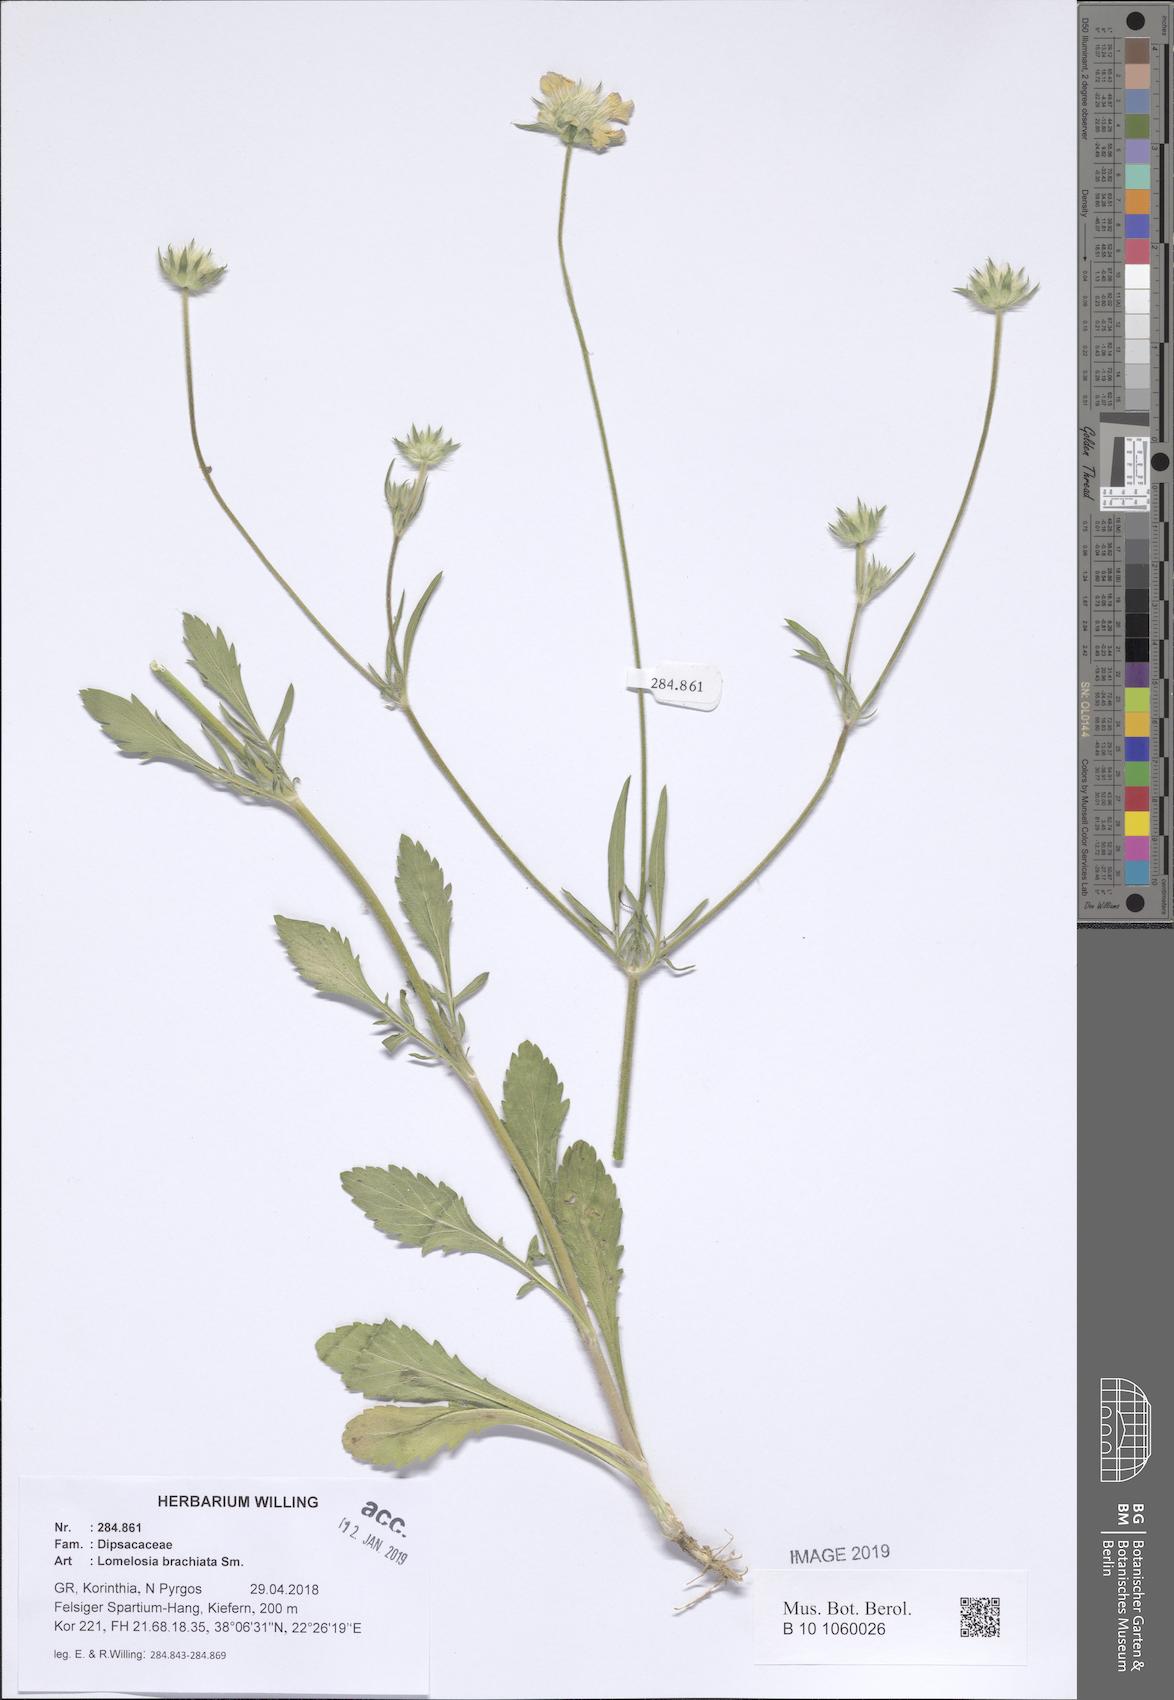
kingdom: Plantae
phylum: Tracheophyta
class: Magnoliopsida
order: Dipsacales
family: Caprifoliaceae
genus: Lomelosia
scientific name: Lomelosia brachiata
